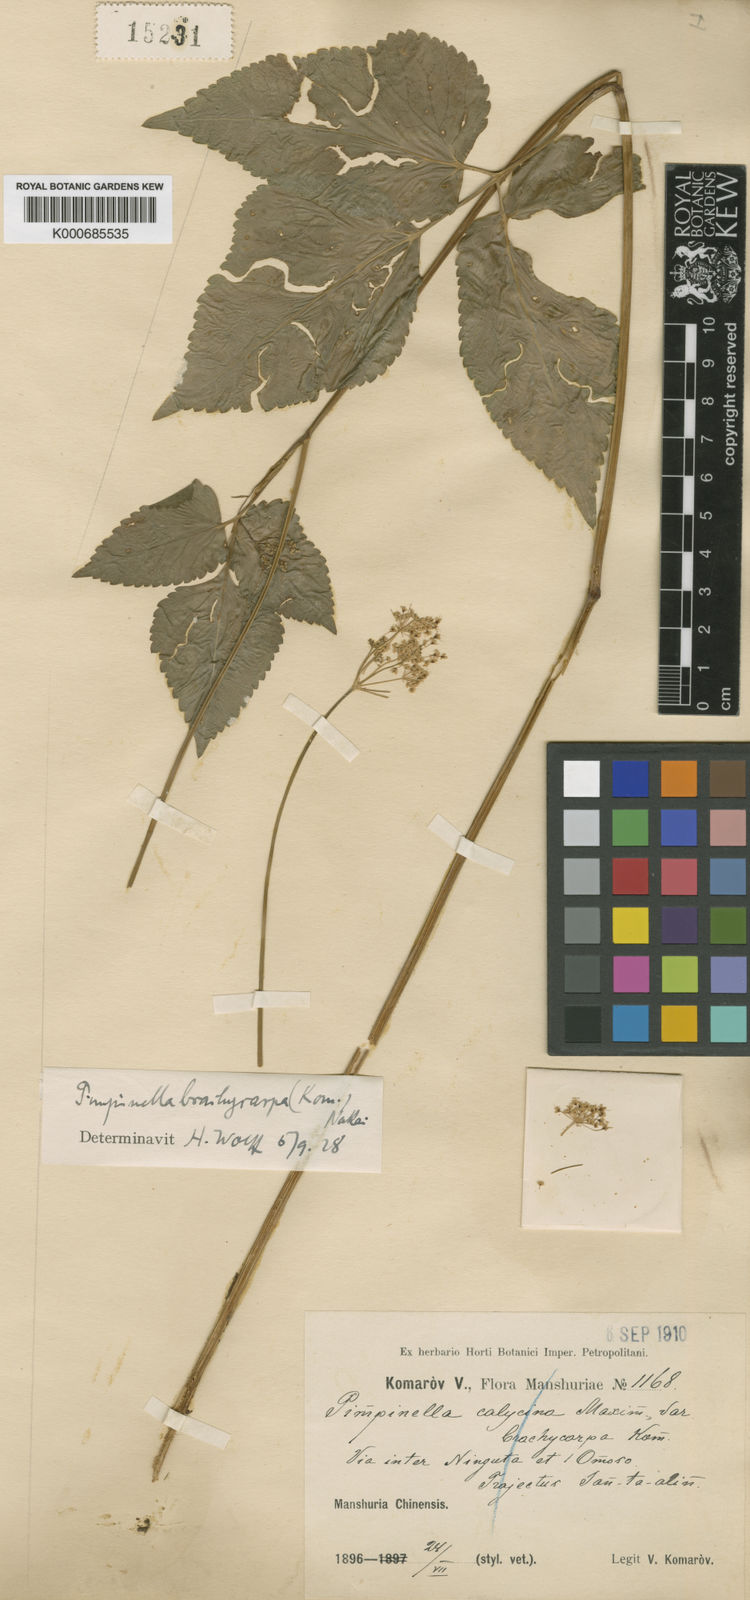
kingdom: Plantae
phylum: Tracheophyta
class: Magnoliopsida
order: Apiales
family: Apiaceae
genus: Spuriopimpinella
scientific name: Spuriopimpinella brachycarpa
